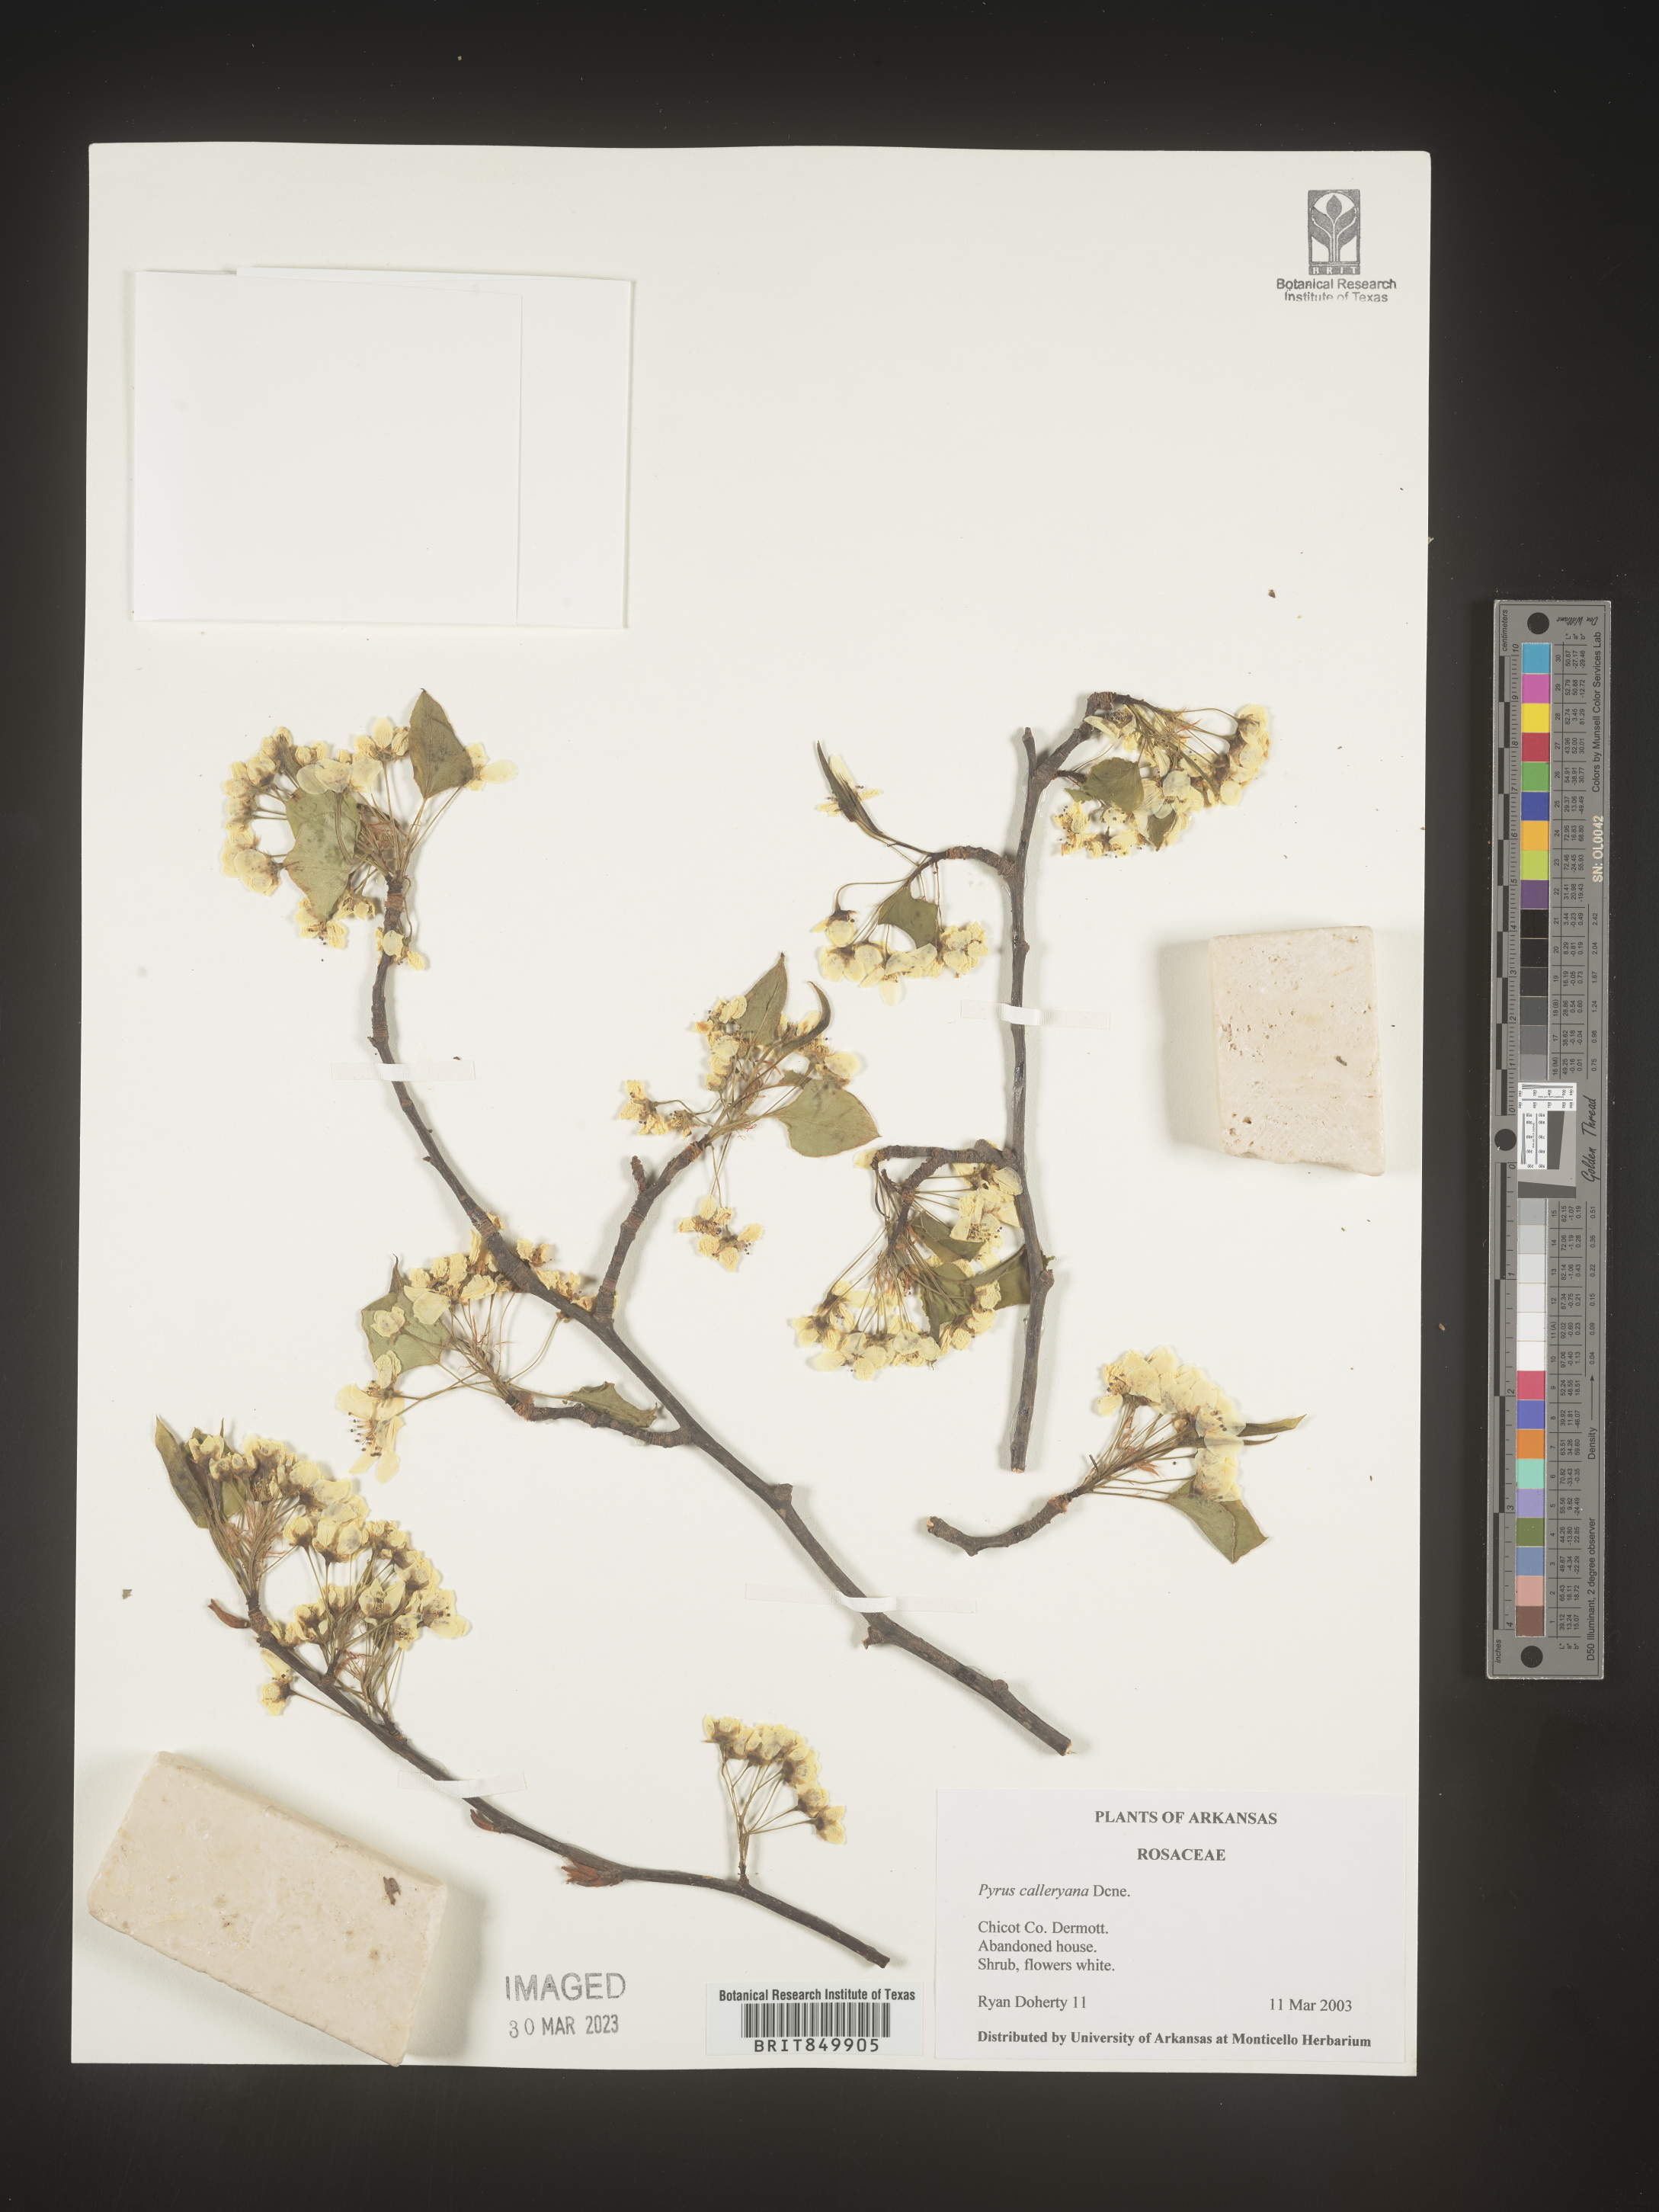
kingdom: Plantae
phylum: Tracheophyta
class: Magnoliopsida
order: Rosales
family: Rosaceae
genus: Pyrus
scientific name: Pyrus
